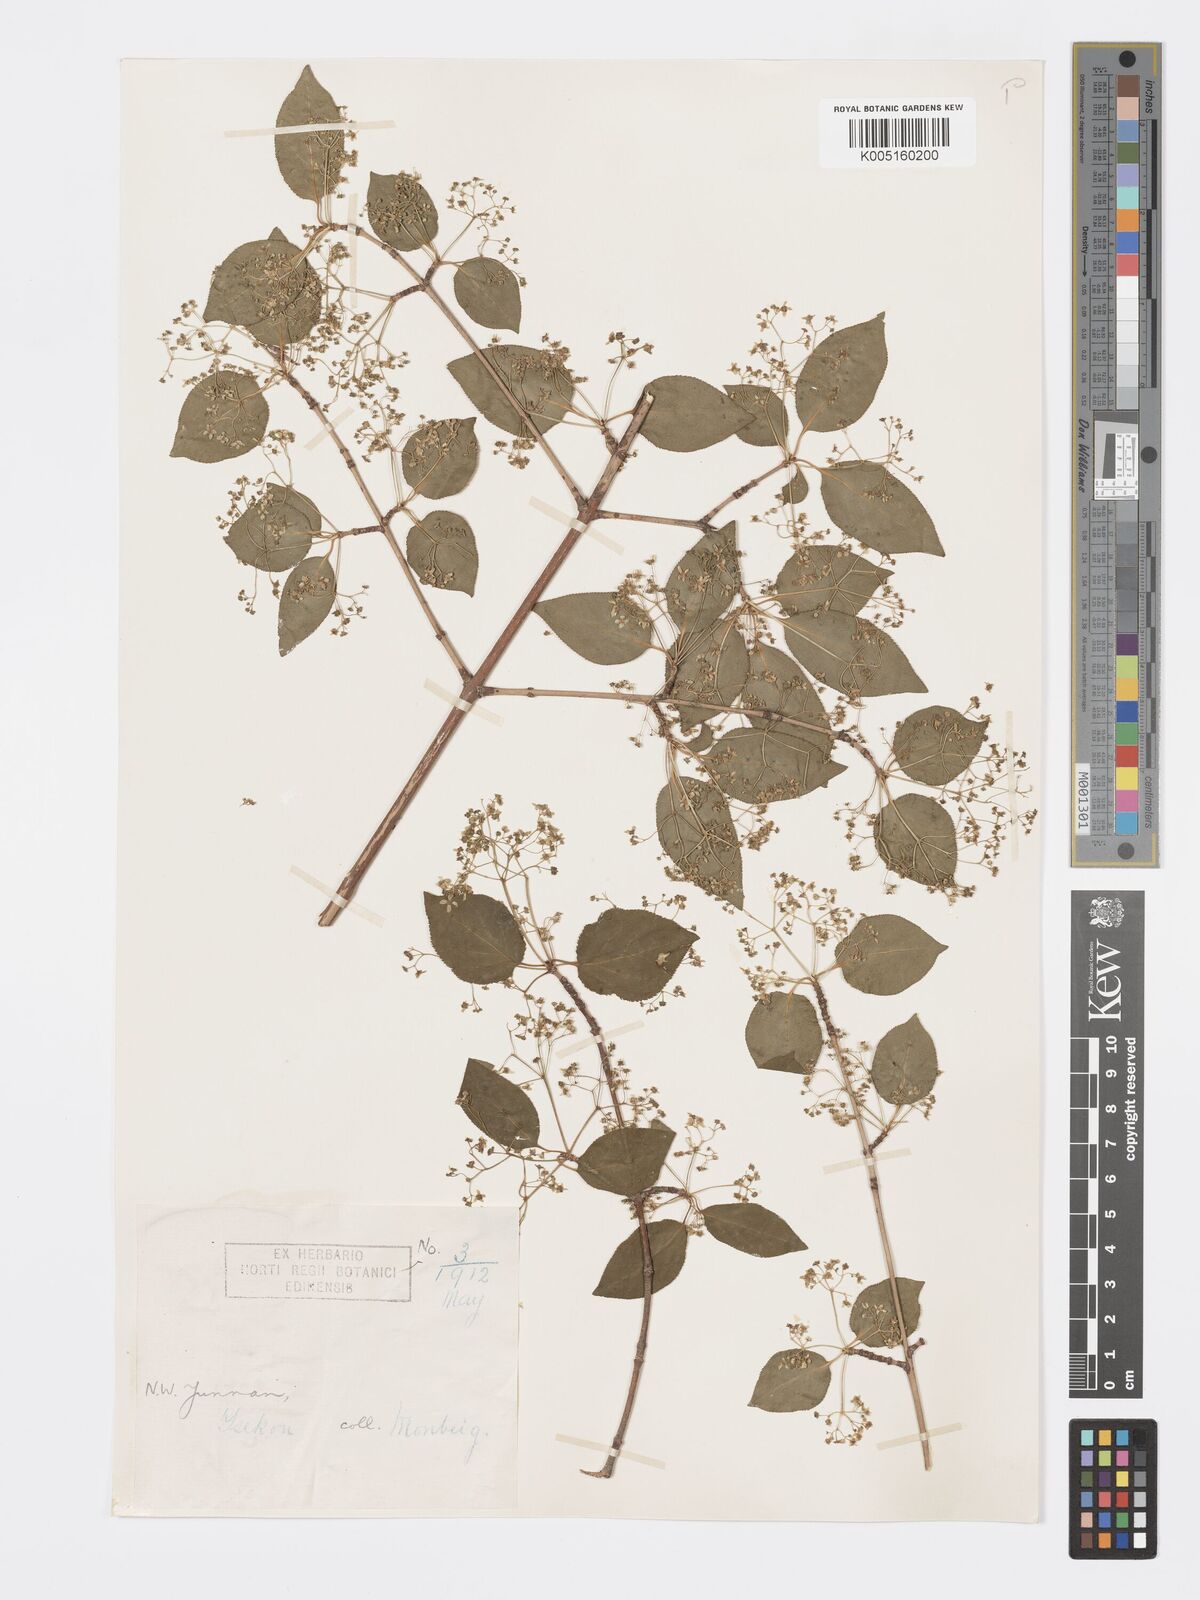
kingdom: Plantae
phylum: Tracheophyta
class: Magnoliopsida
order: Celastrales
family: Celastraceae
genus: Euonymus
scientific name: Euonymus sanguineus
